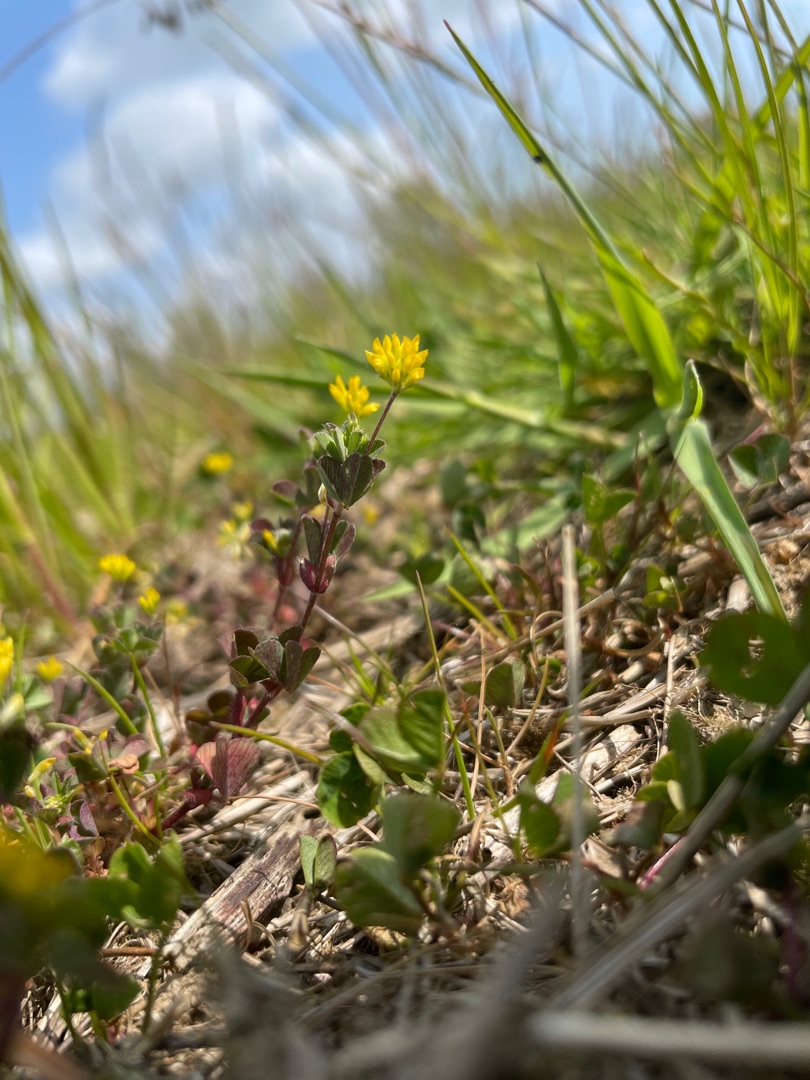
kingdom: Plantae
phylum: Tracheophyta
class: Magnoliopsida
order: Fabales
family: Fabaceae
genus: Trifolium
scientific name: Trifolium dubium
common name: Fin kløver
